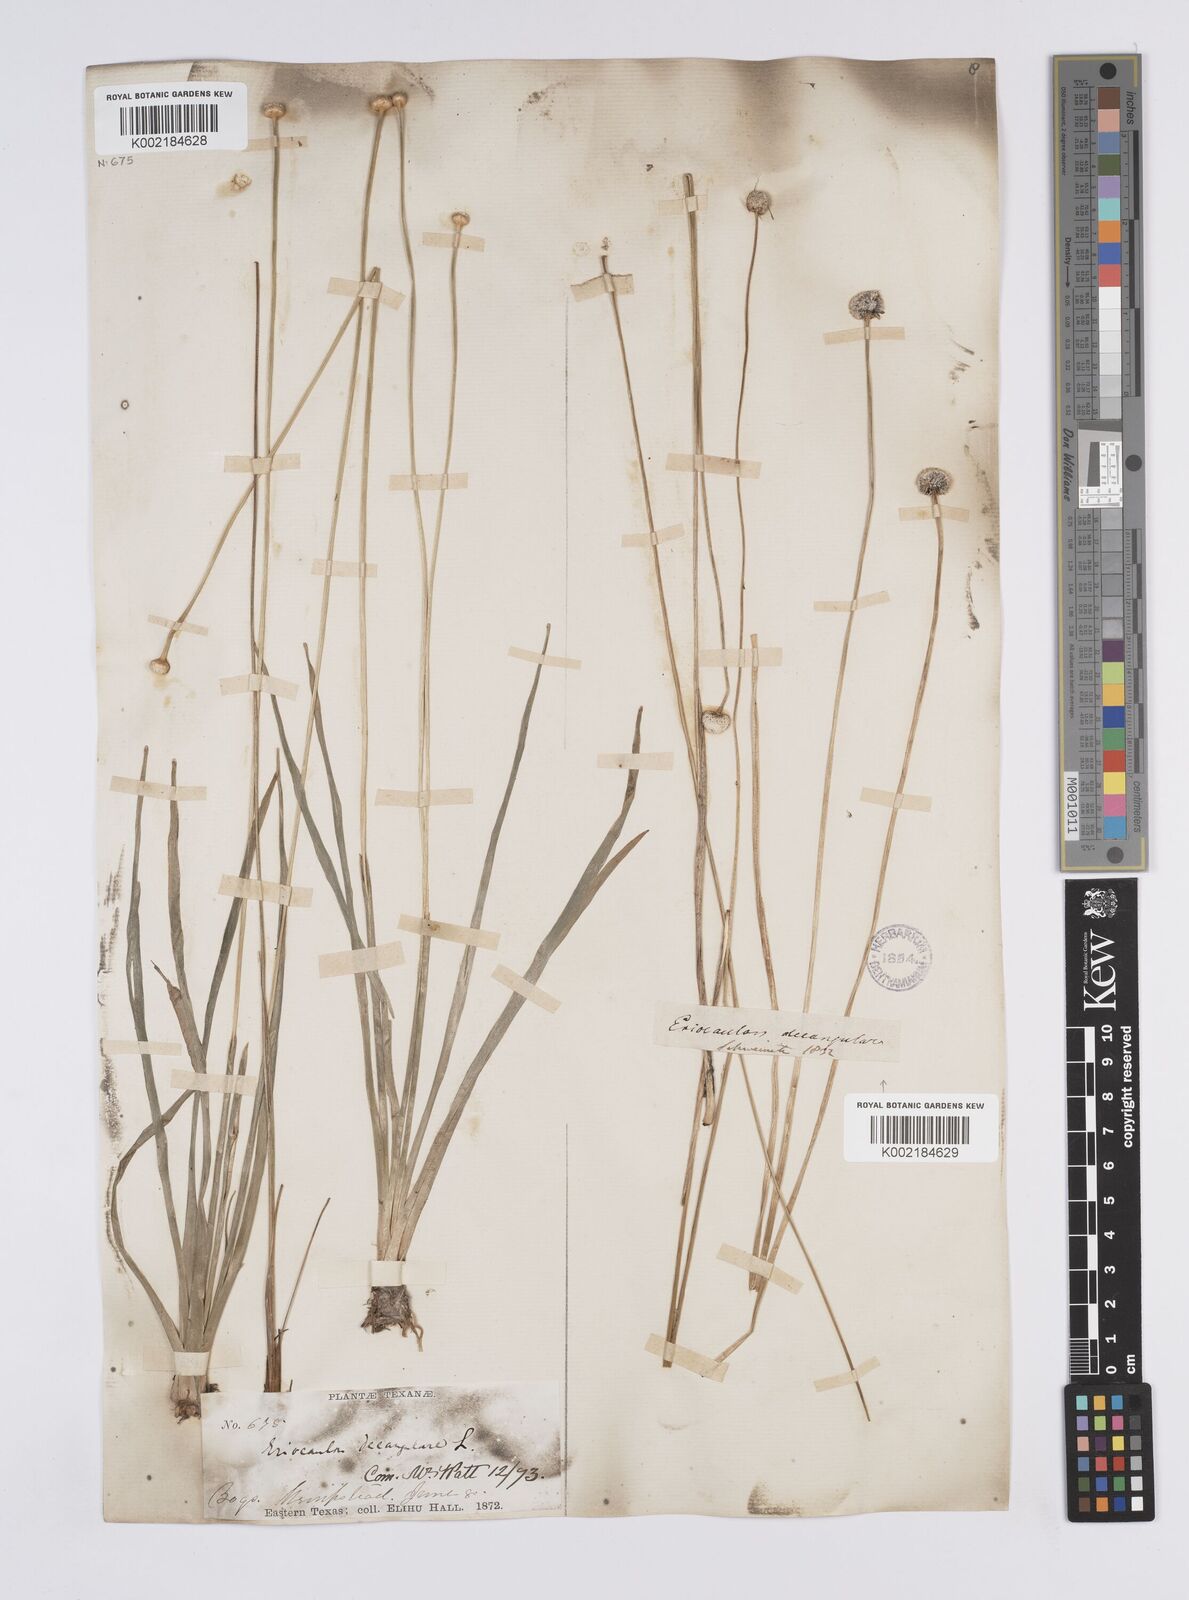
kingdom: Plantae
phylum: Tracheophyta
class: Liliopsida
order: Poales
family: Eriocaulaceae
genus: Eriocaulon
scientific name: Eriocaulon decangulare
